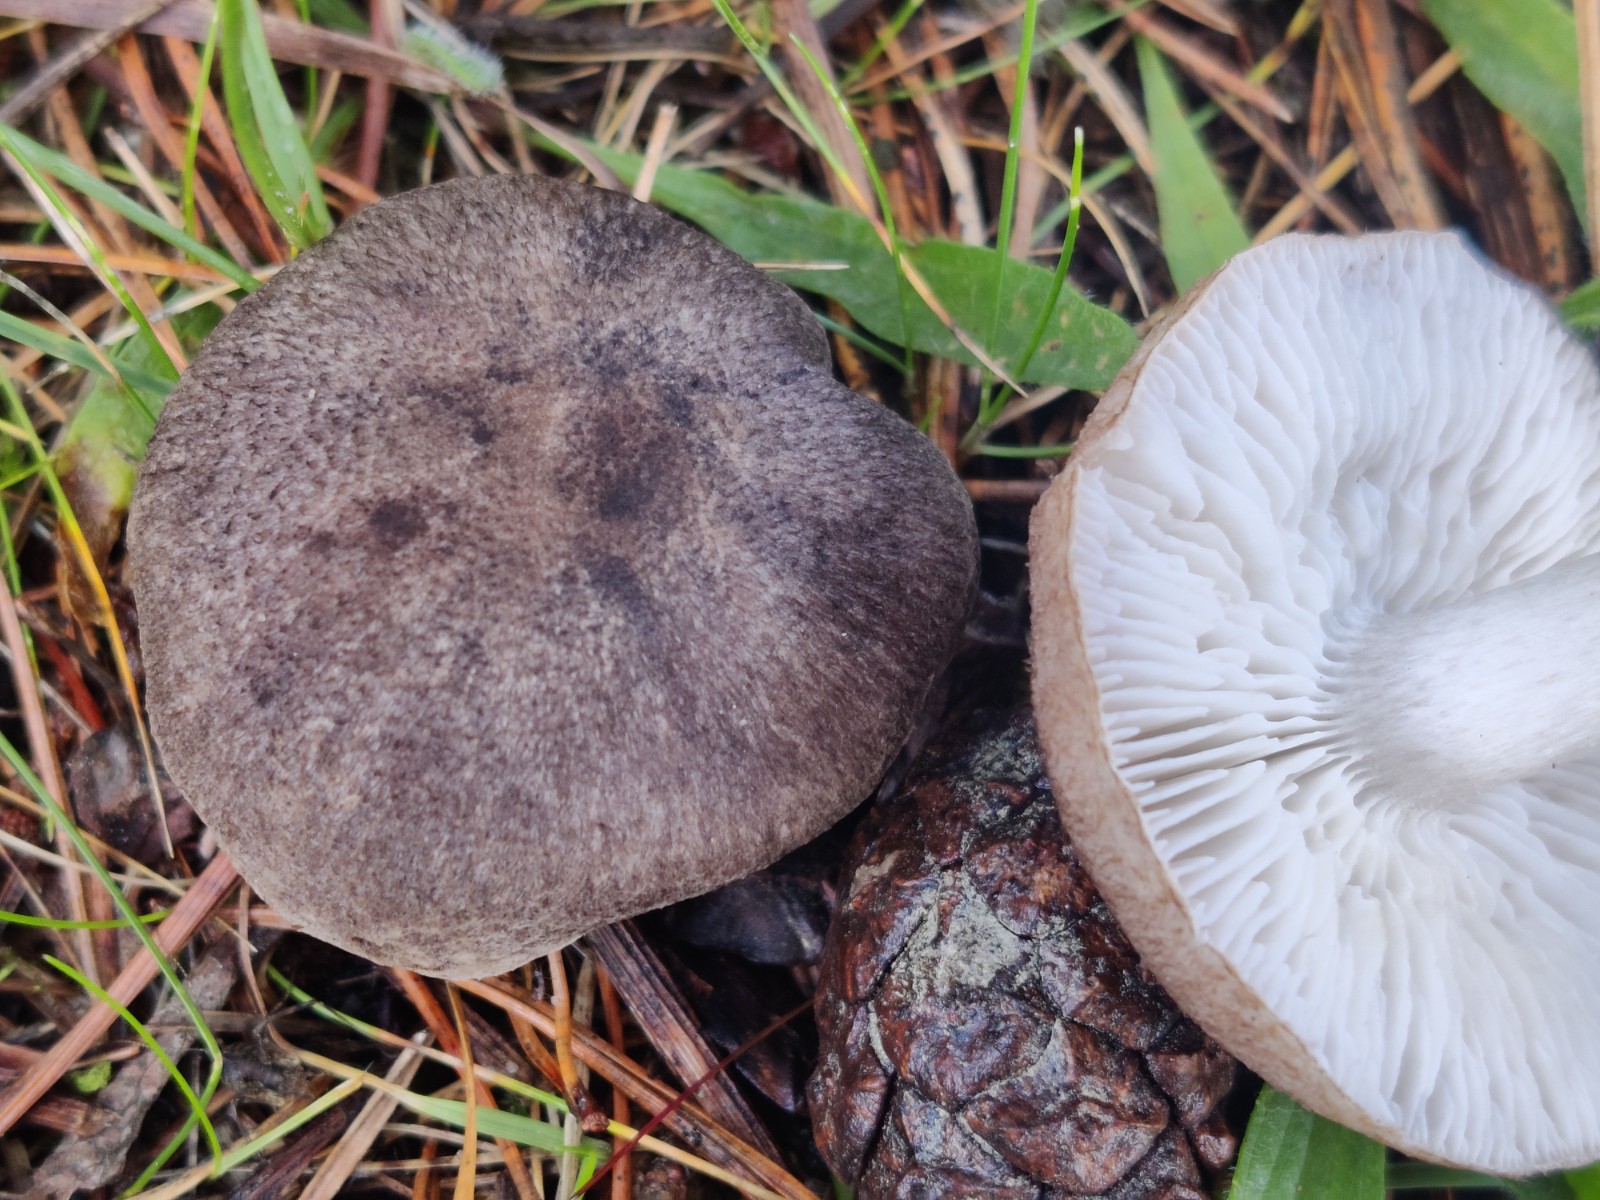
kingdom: Fungi
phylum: Basidiomycota
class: Agaricomycetes
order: Agaricales
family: Tricholomataceae
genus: Tricholoma
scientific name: Tricholoma terreum
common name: jordfarvet ridderhat
